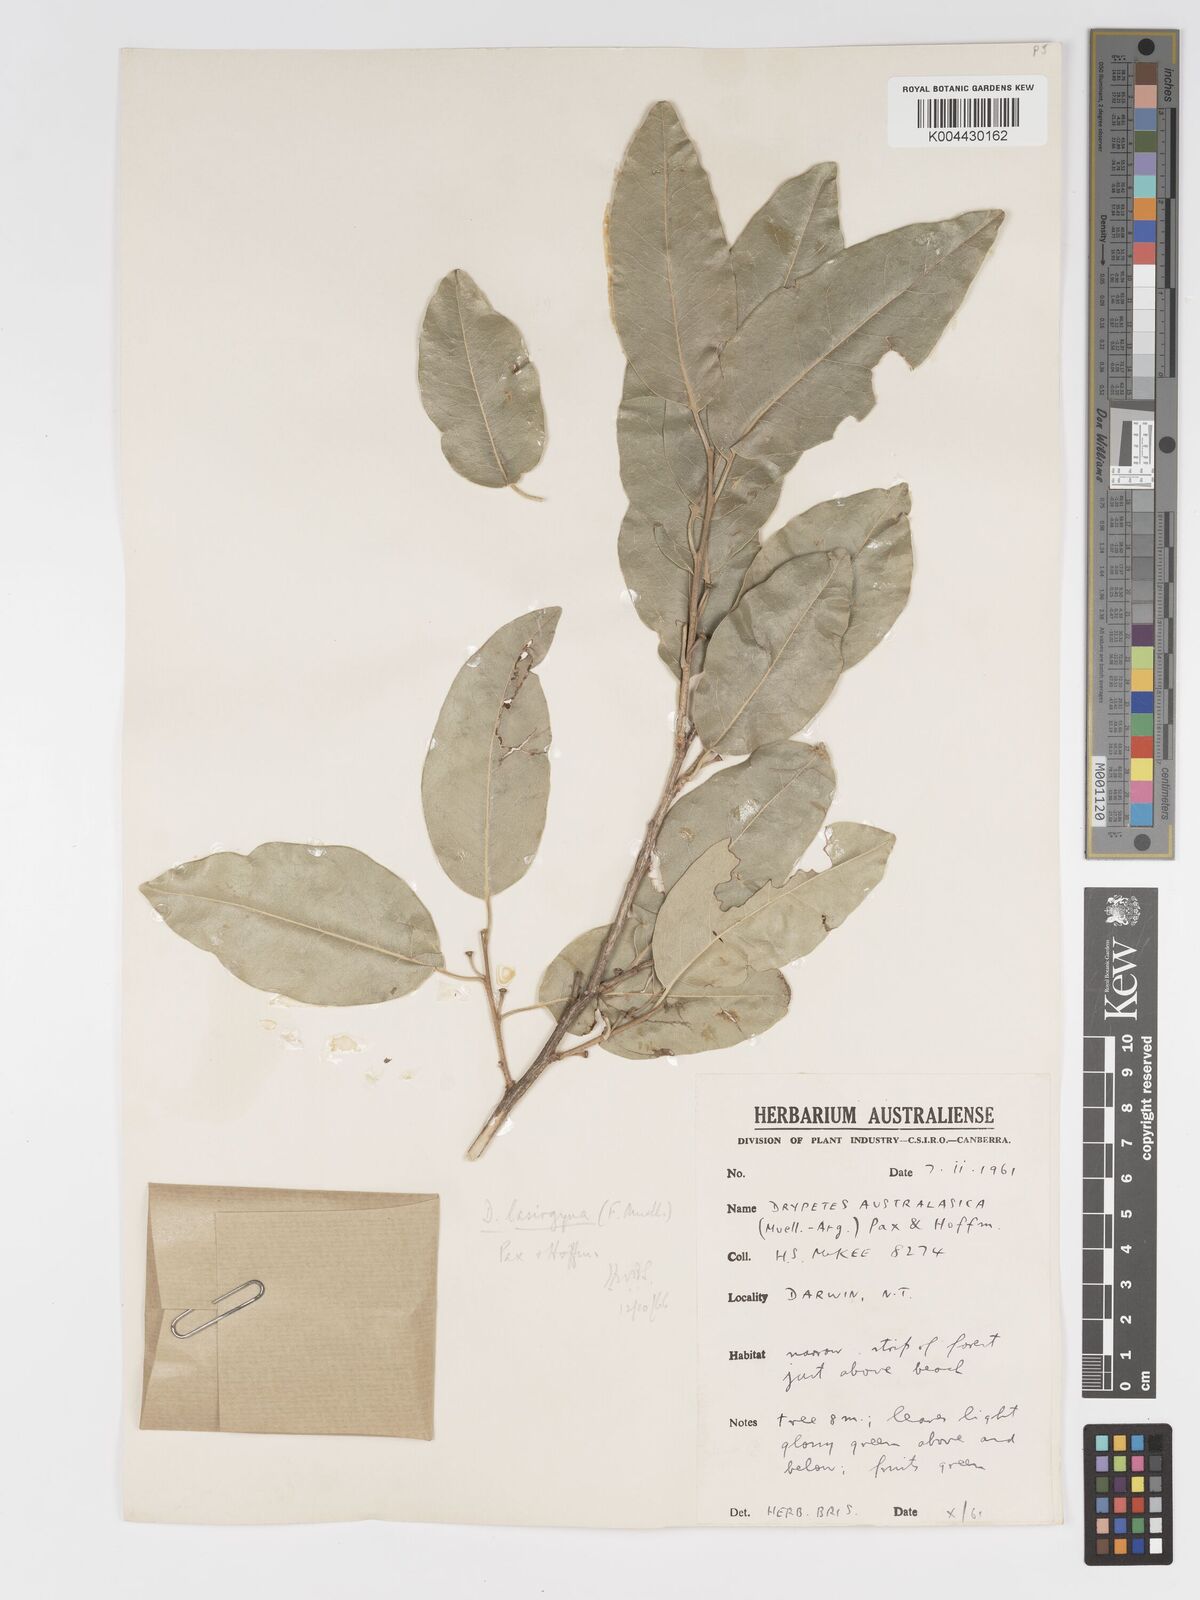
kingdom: Plantae
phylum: Tracheophyta
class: Magnoliopsida
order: Malpighiales
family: Putranjivaceae
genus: Drypetes
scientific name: Drypetes deplanchei
